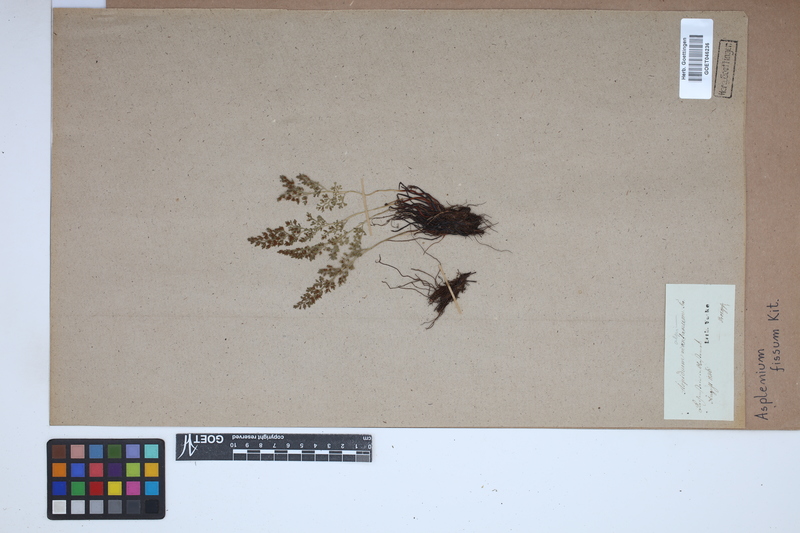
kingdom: Plantae
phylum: Tracheophyta
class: Polypodiopsida
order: Polypodiales
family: Aspleniaceae
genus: Asplenium
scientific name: Asplenium fissum
